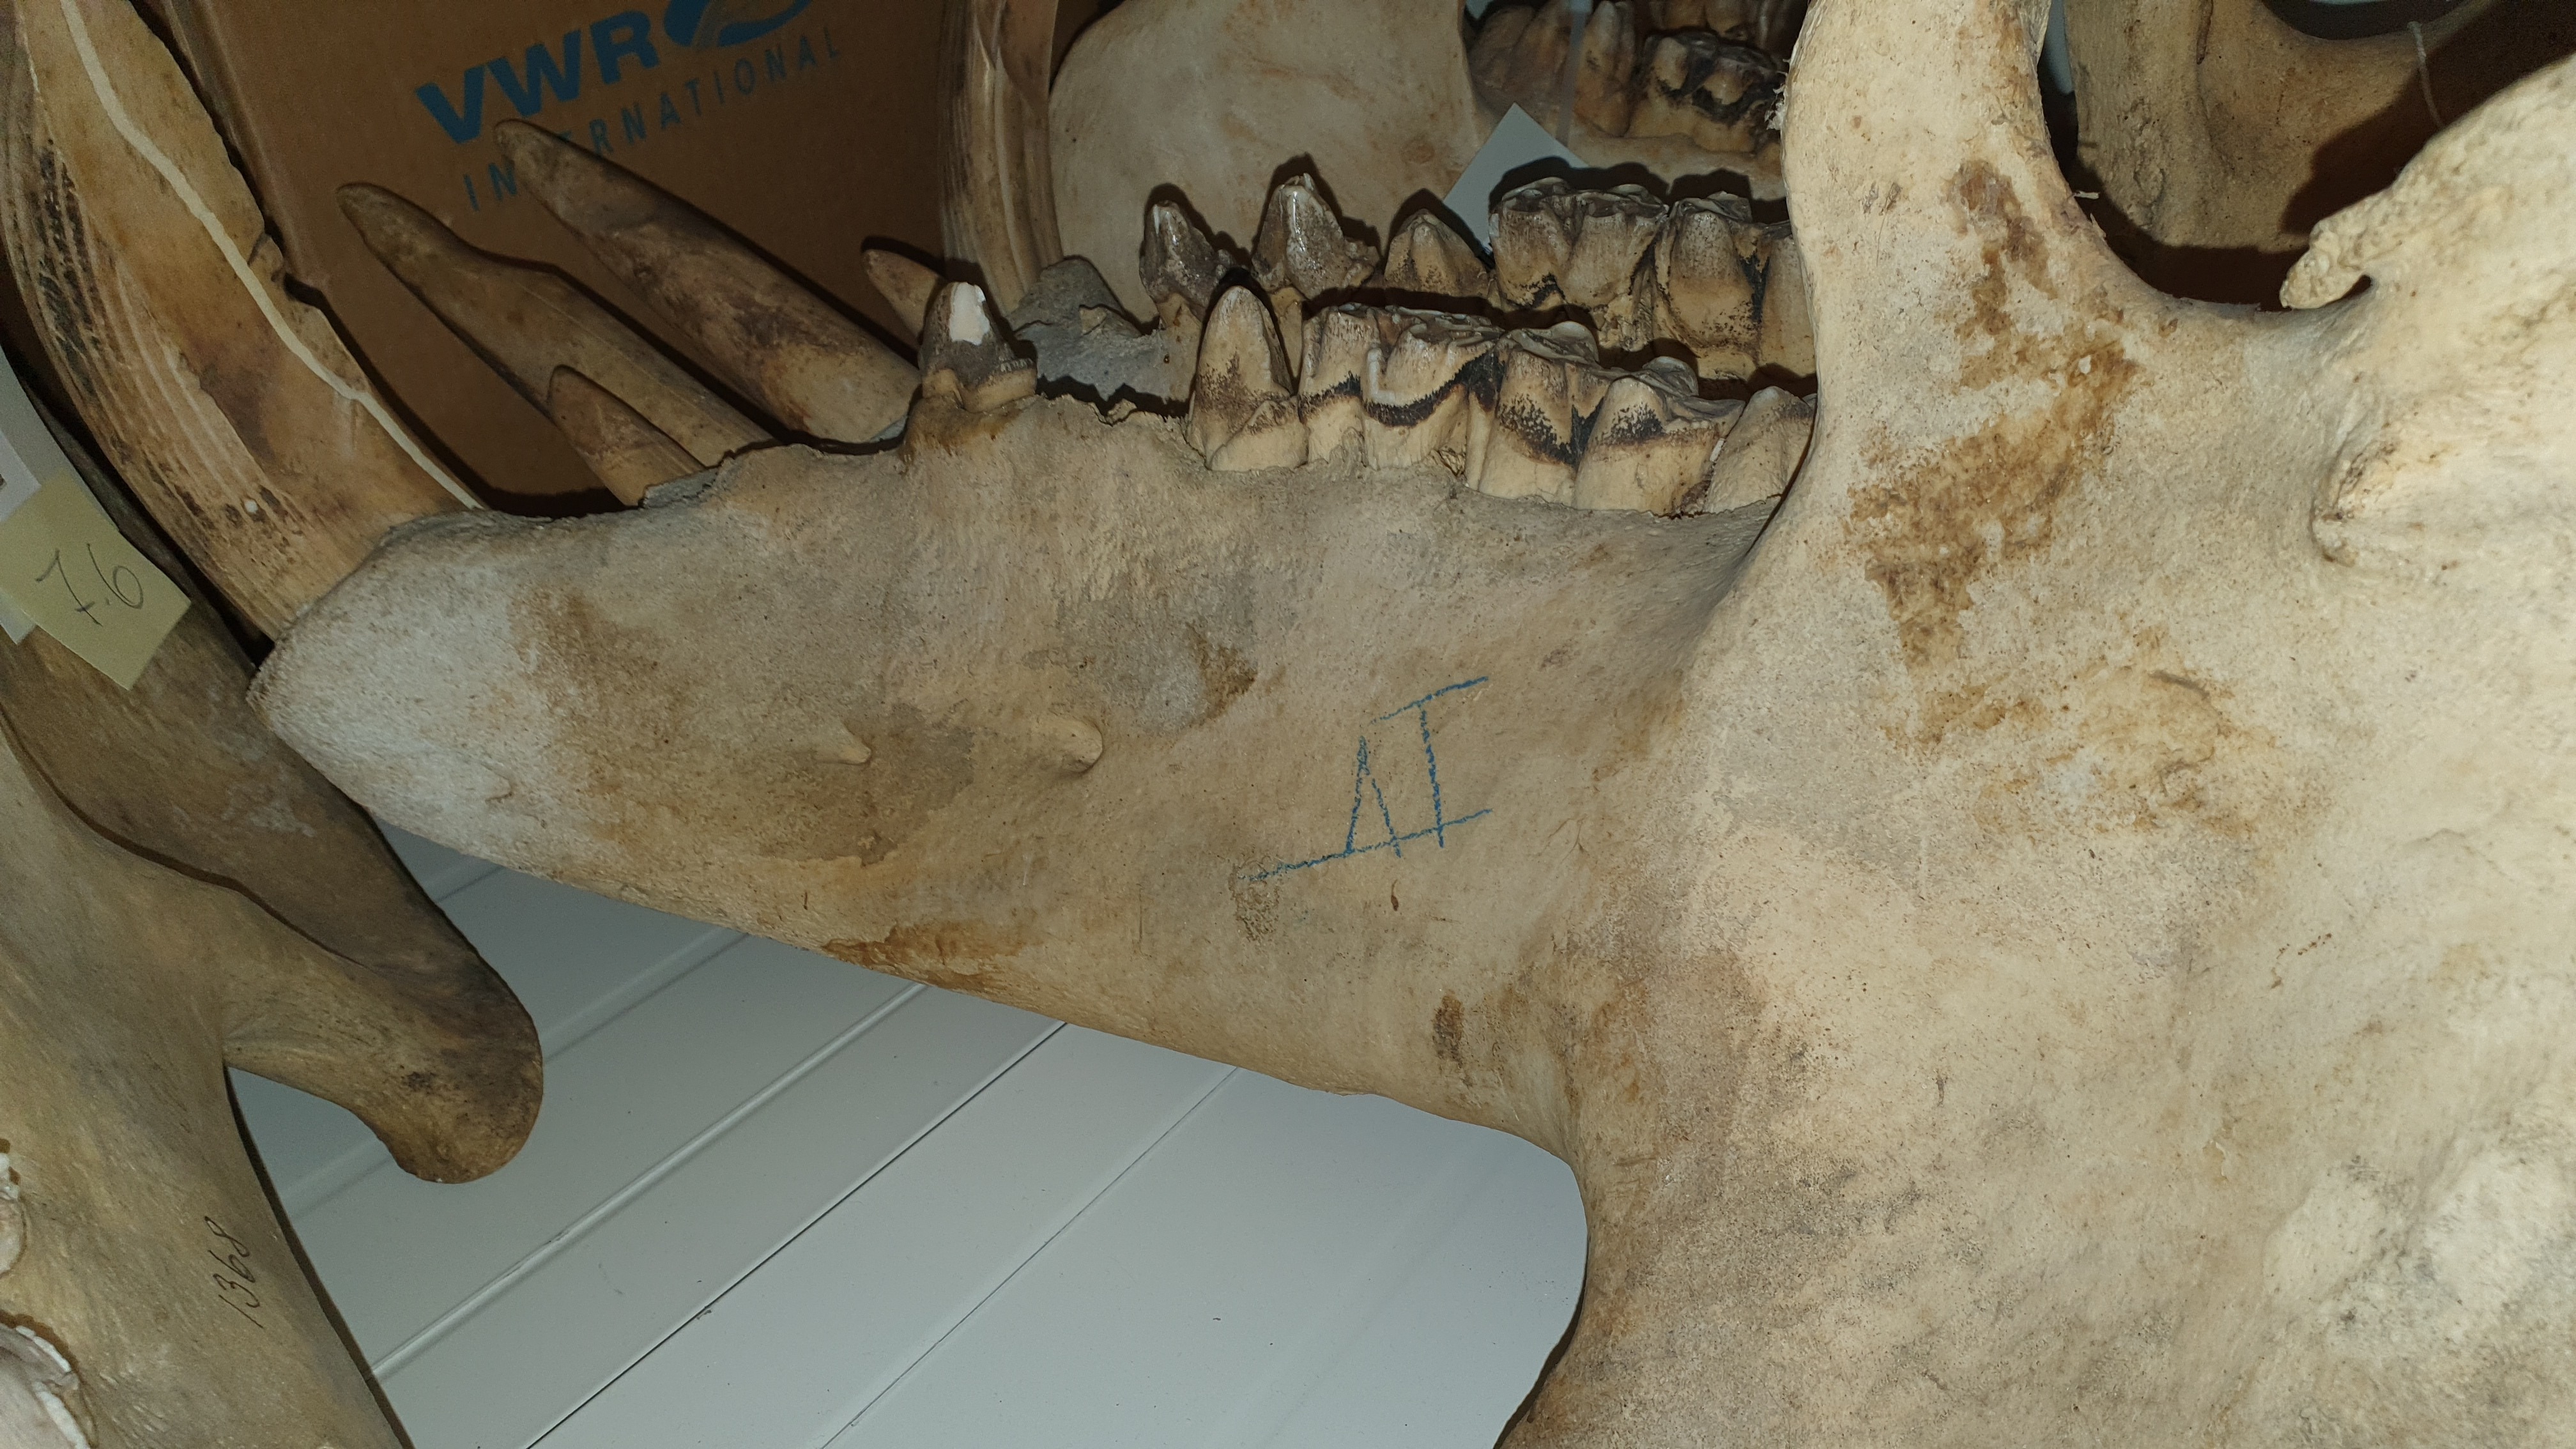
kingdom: Animalia
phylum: Chordata
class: Mammalia
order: Artiodactyla
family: Hippopotamidae
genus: Hippopotamus
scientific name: Hippopotamus
